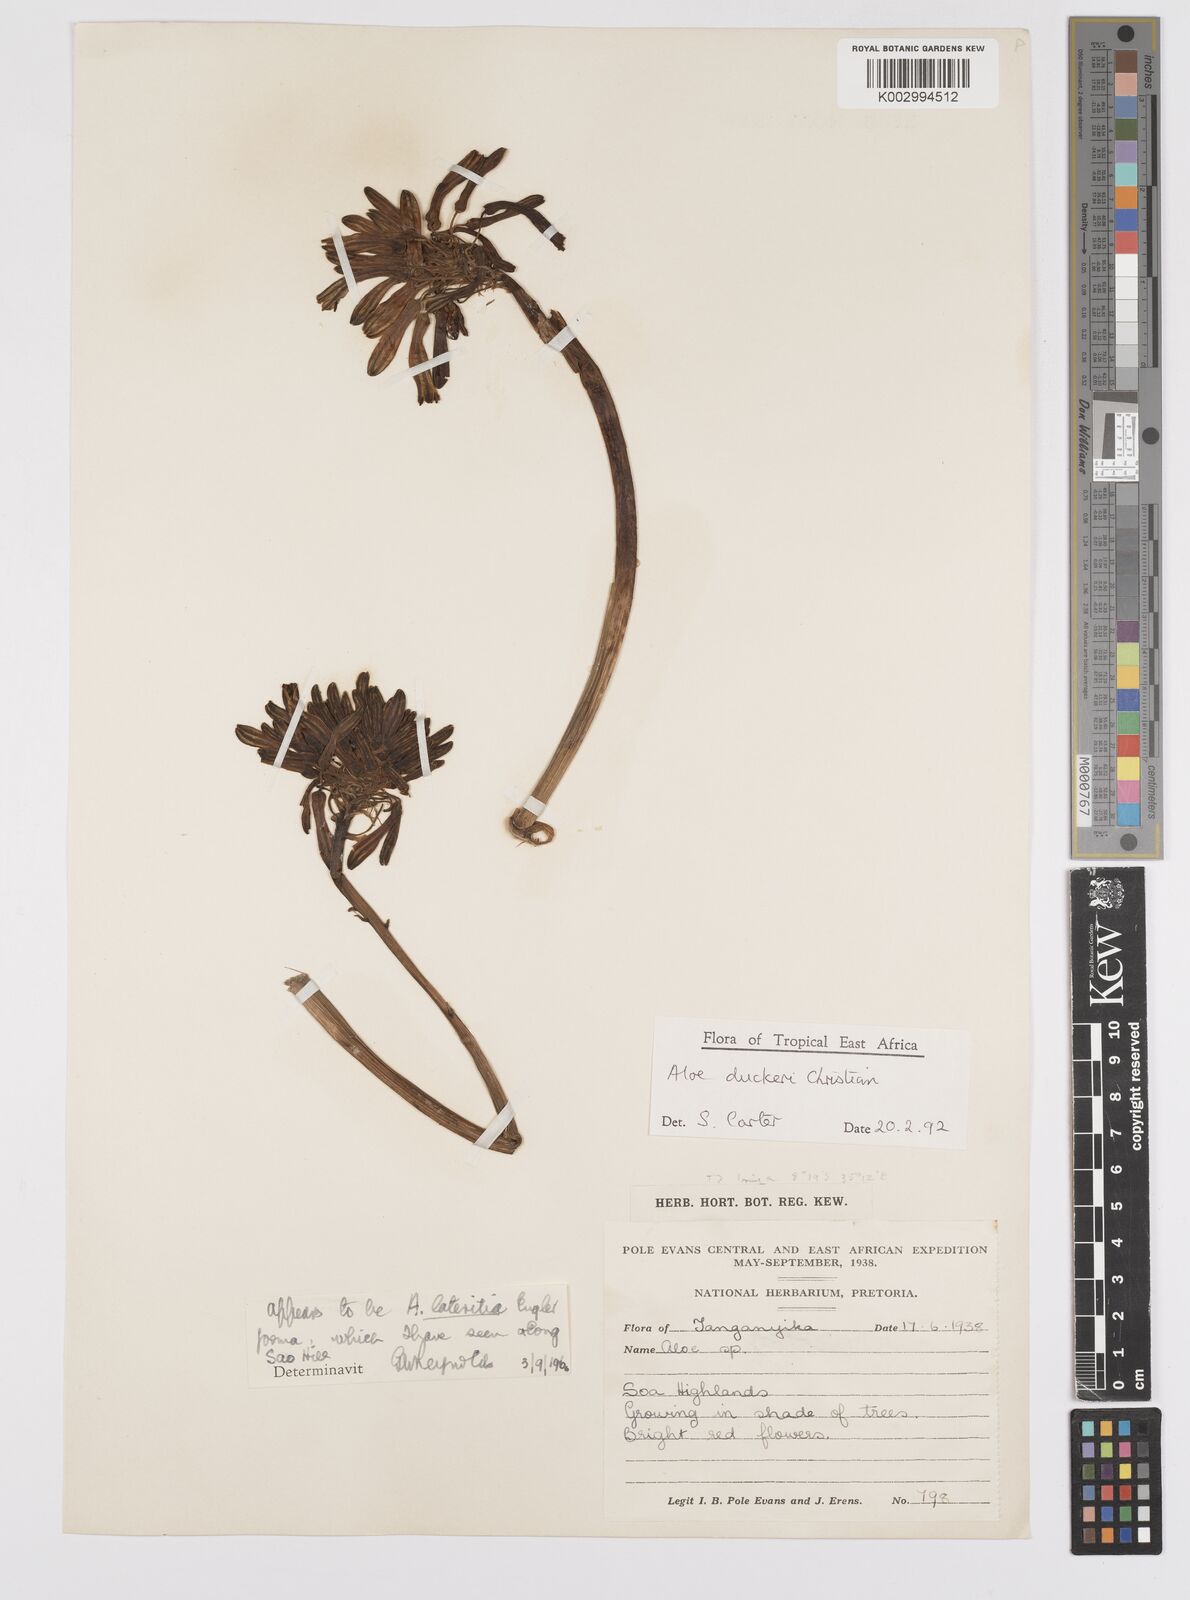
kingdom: Plantae
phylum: Tracheophyta
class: Liliopsida
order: Asparagales
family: Asphodelaceae
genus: Aloe
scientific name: Aloe duckeri
